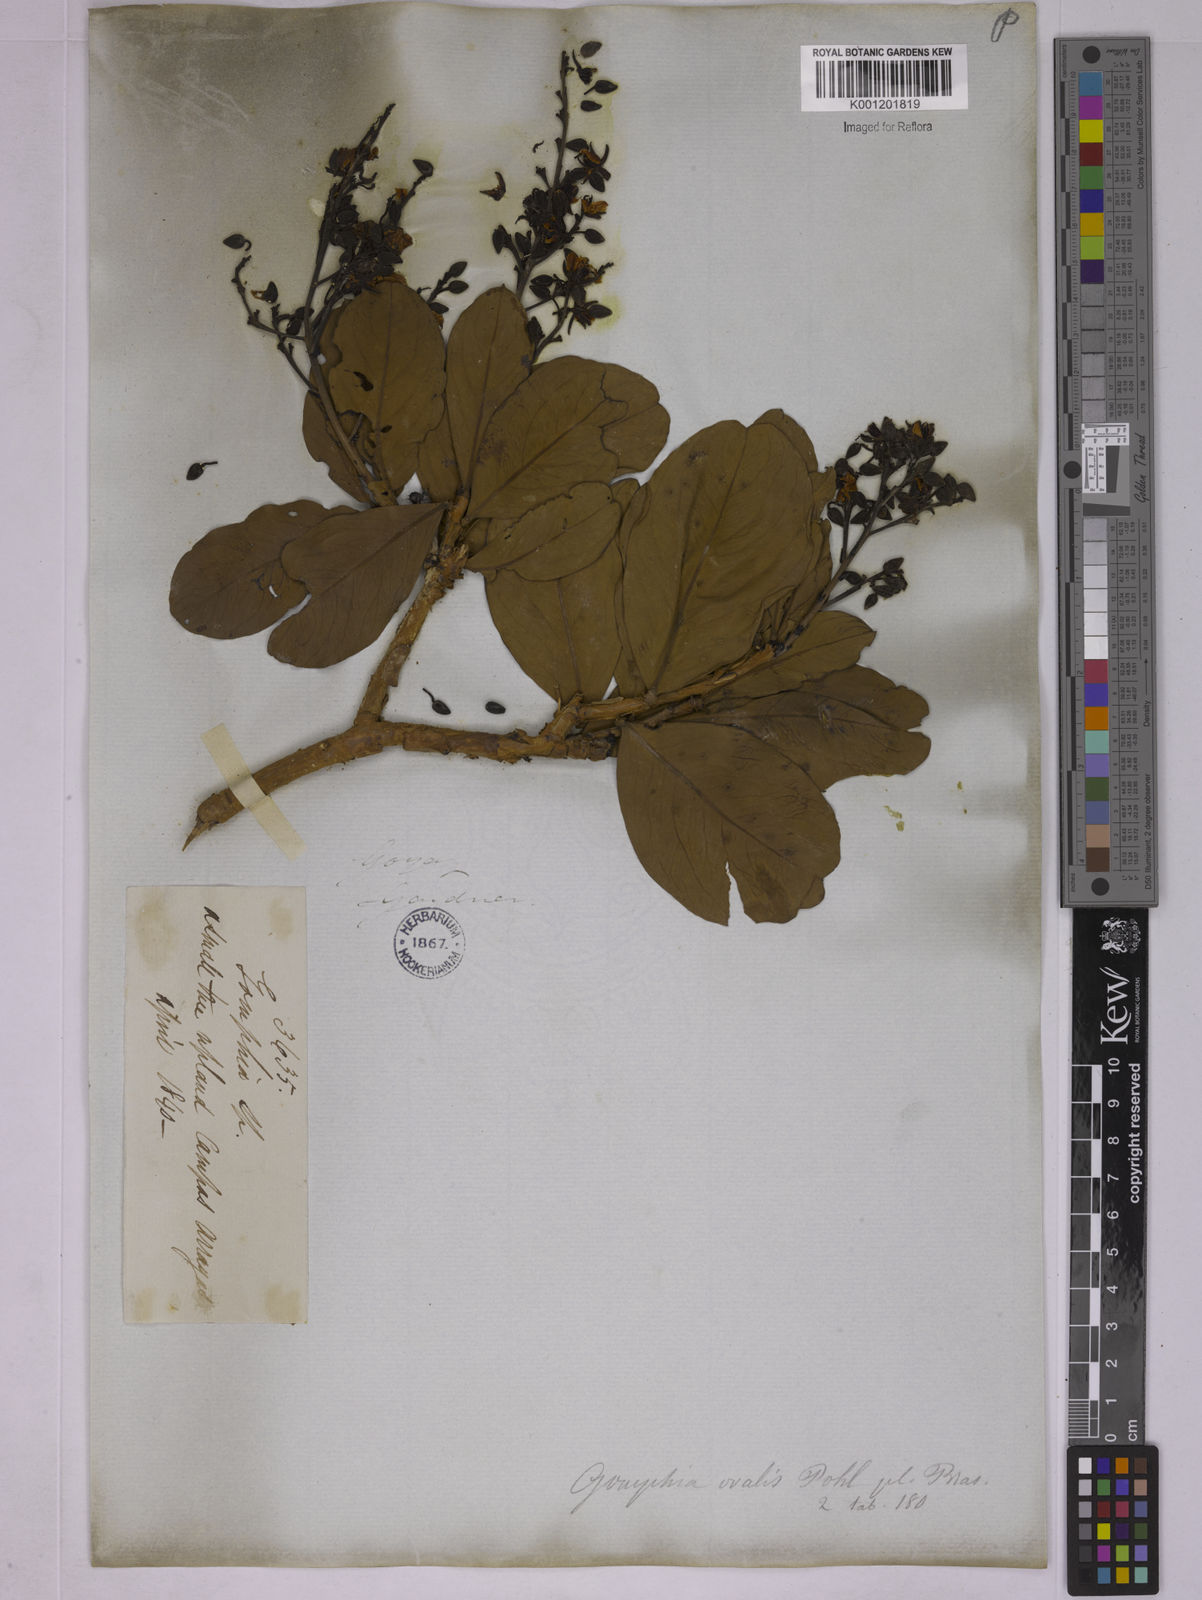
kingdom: Plantae
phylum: Tracheophyta
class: Magnoliopsida
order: Malpighiales
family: Ochnaceae
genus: Ouratea
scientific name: Ouratea ovalis
